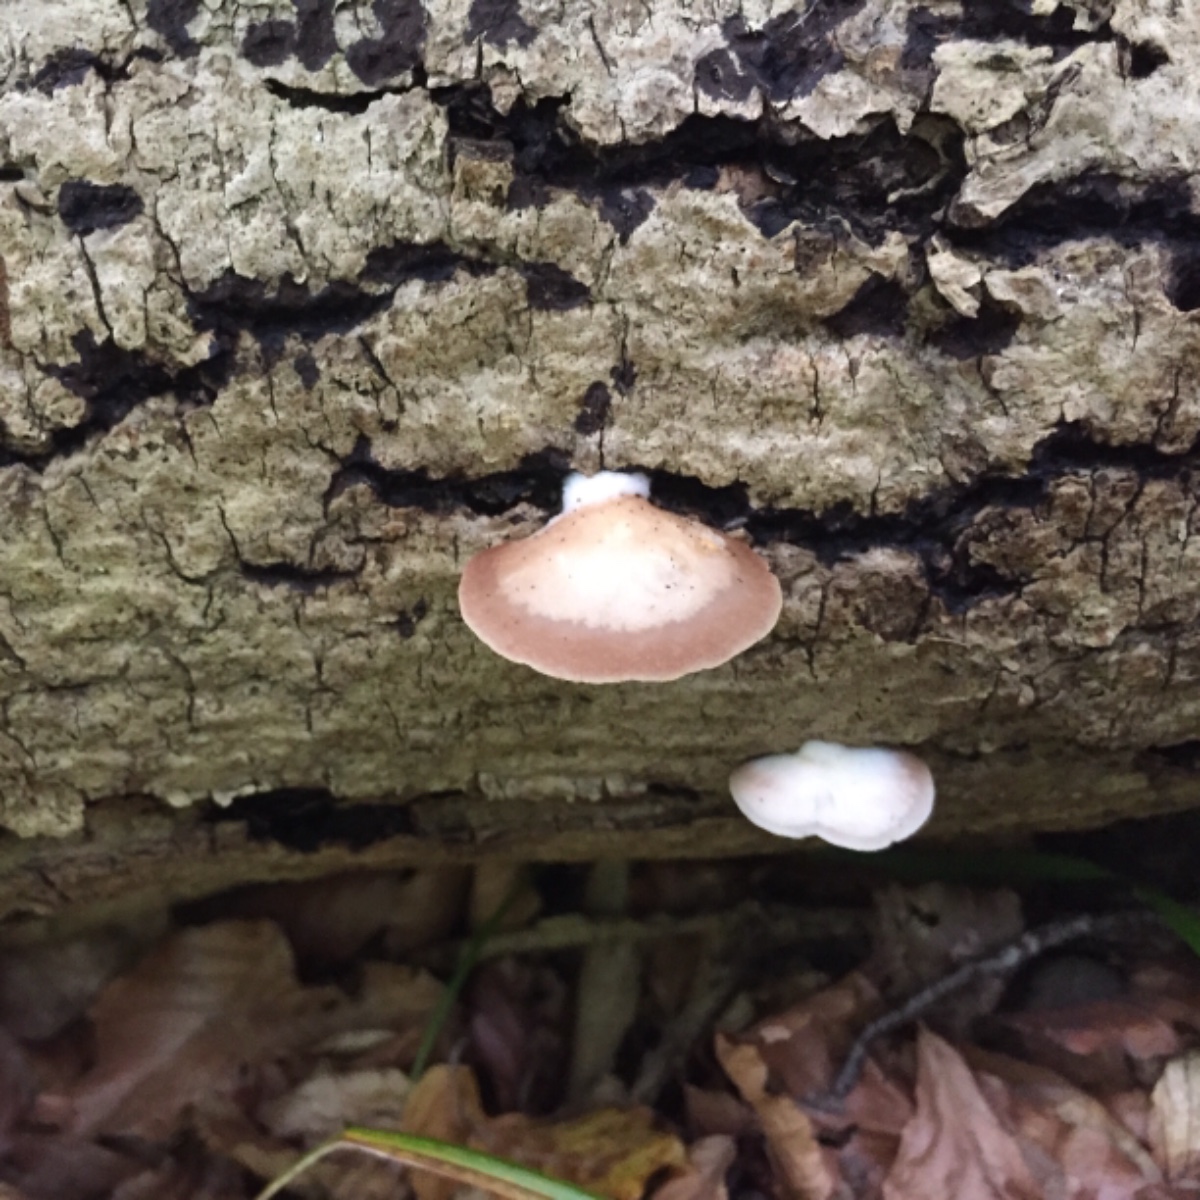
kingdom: Fungi
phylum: Basidiomycota
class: Agaricomycetes
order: Agaricales
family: Crepidotaceae
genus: Crepidotus
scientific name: Crepidotus mollis
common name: blød muslingesvamp
